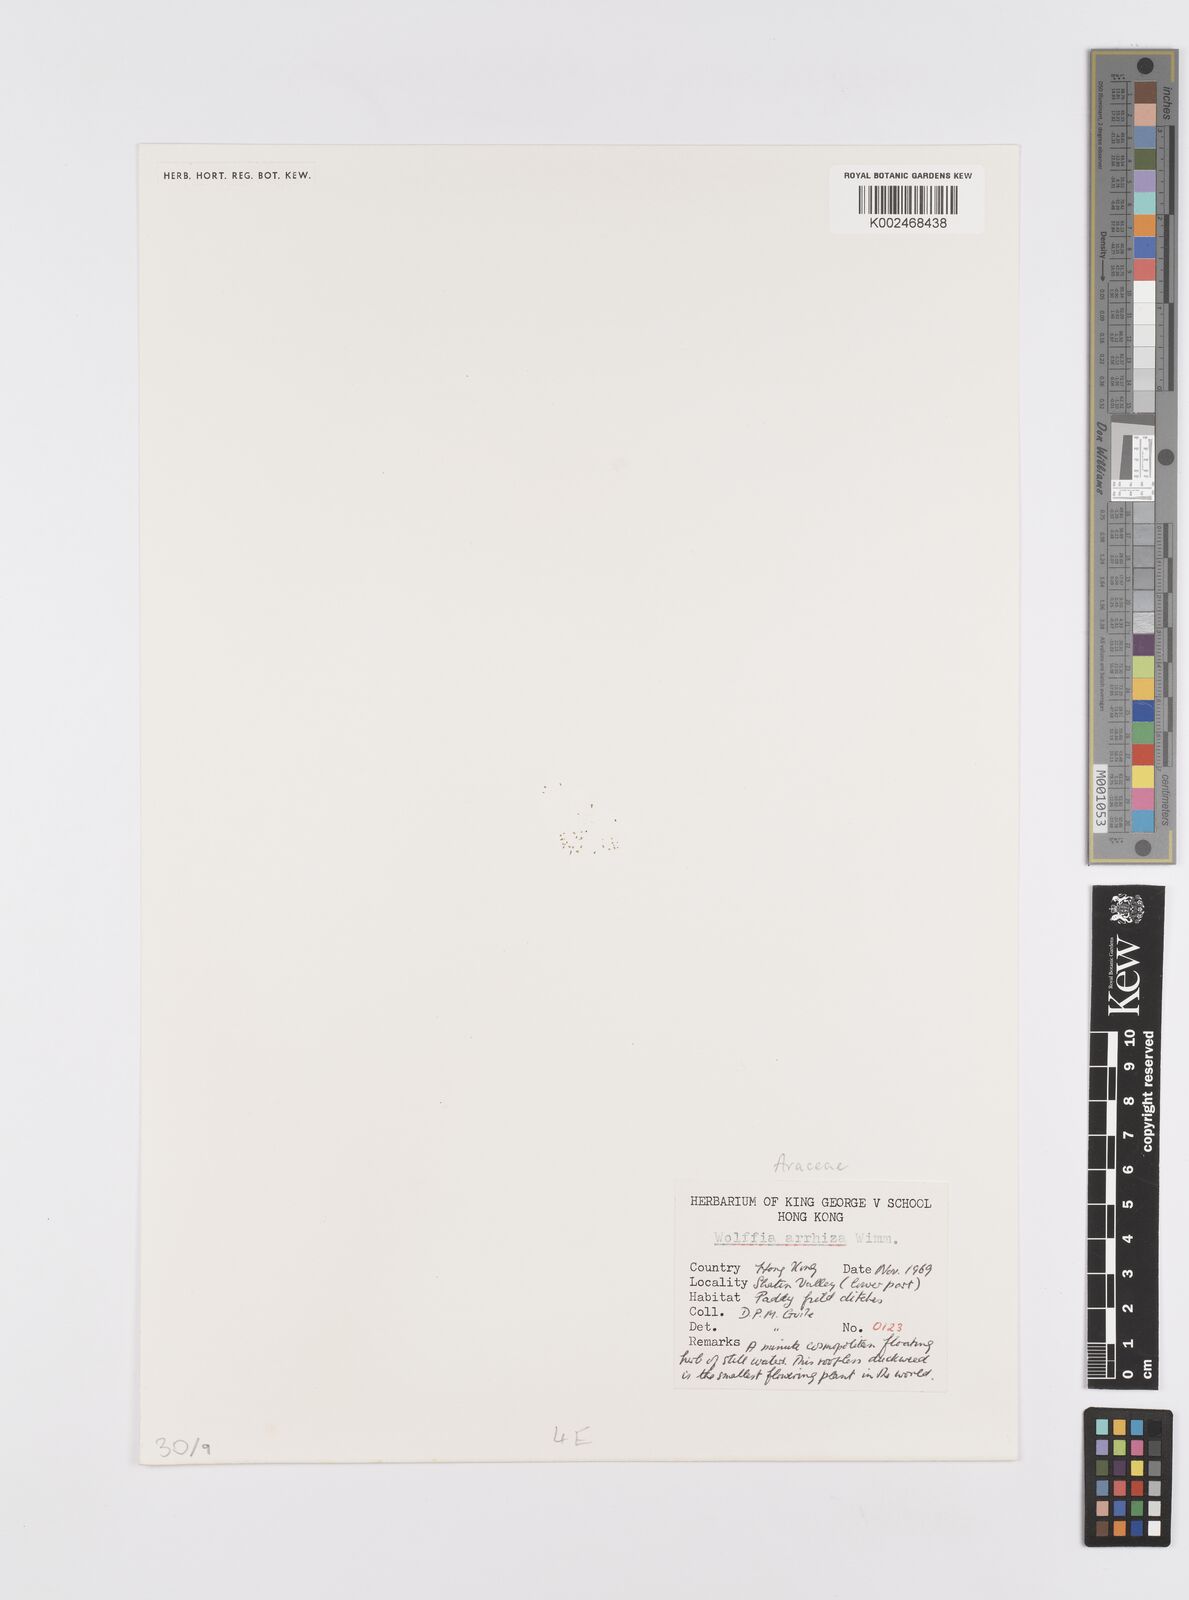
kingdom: Plantae
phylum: Tracheophyta
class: Liliopsida
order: Alismatales
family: Araceae
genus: Wolffia
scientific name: Wolffia arrhiza
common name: Rootless duckweed
